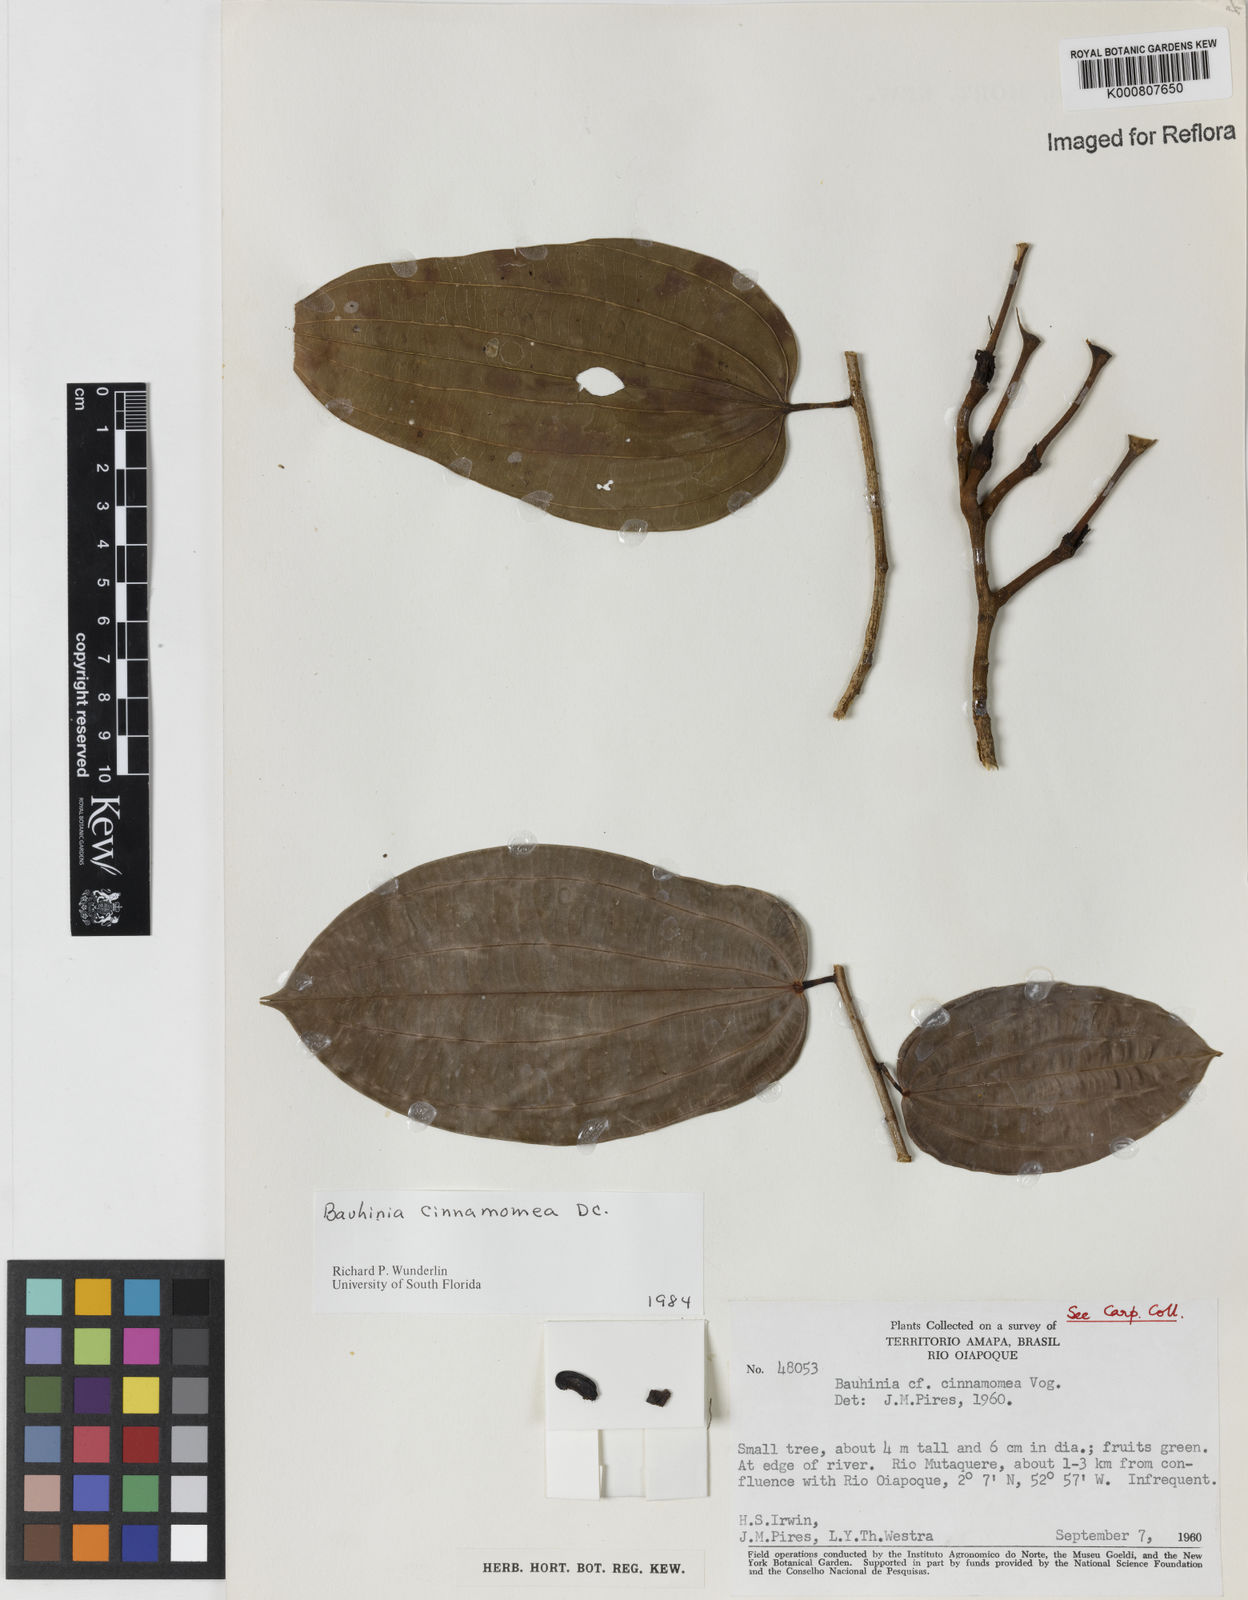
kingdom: Plantae
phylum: Tracheophyta
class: Magnoliopsida
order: Fabales
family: Fabaceae
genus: Bauhinia
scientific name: Bauhinia cinnamomea
